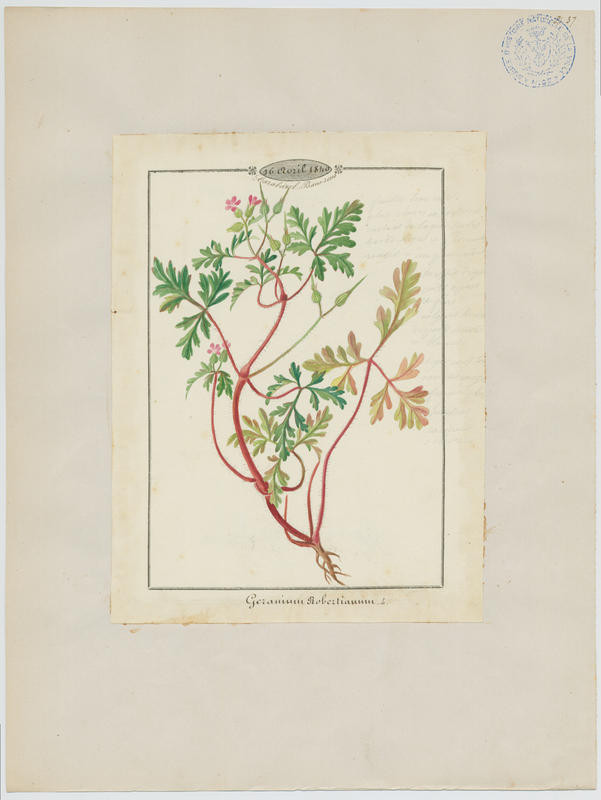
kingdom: Plantae
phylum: Tracheophyta
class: Magnoliopsida
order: Geraniales
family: Geraniaceae
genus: Geranium
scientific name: Geranium robertianum
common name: Herb-robert
